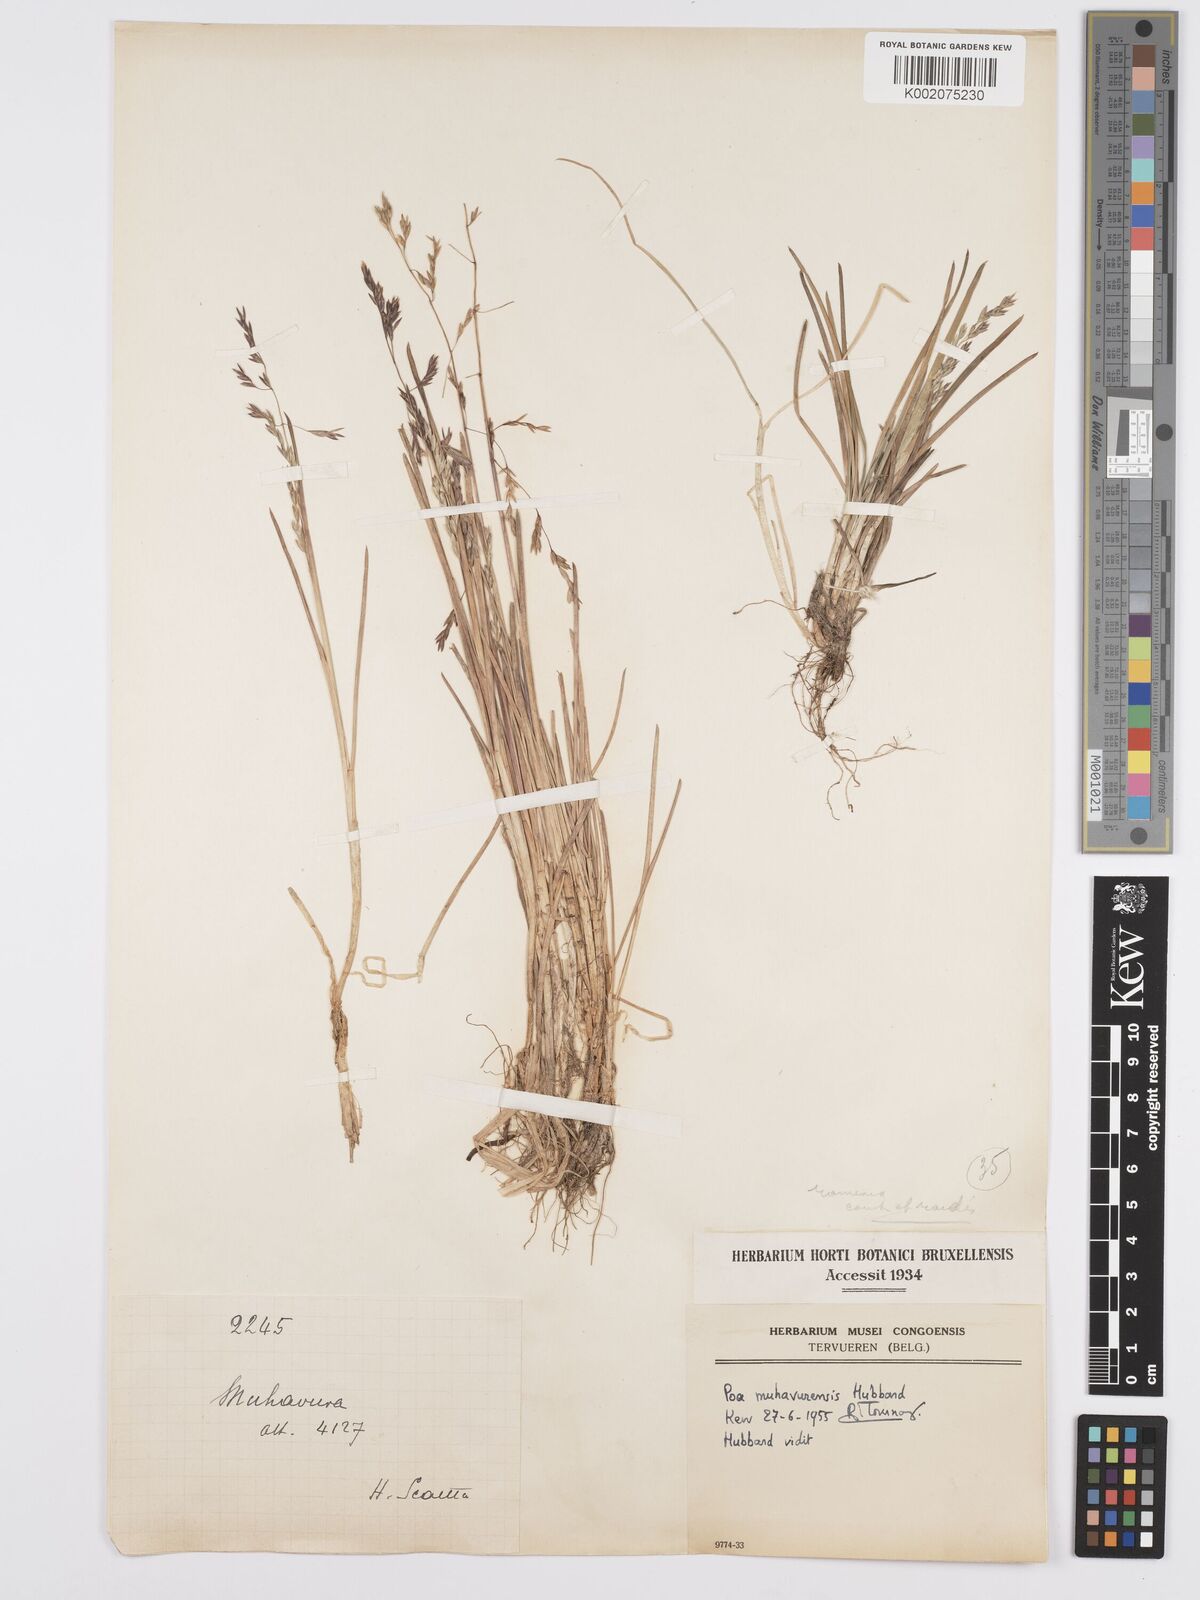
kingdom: Plantae
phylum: Tracheophyta
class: Liliopsida
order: Poales
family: Poaceae
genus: Poa
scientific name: Poa schimperiana
